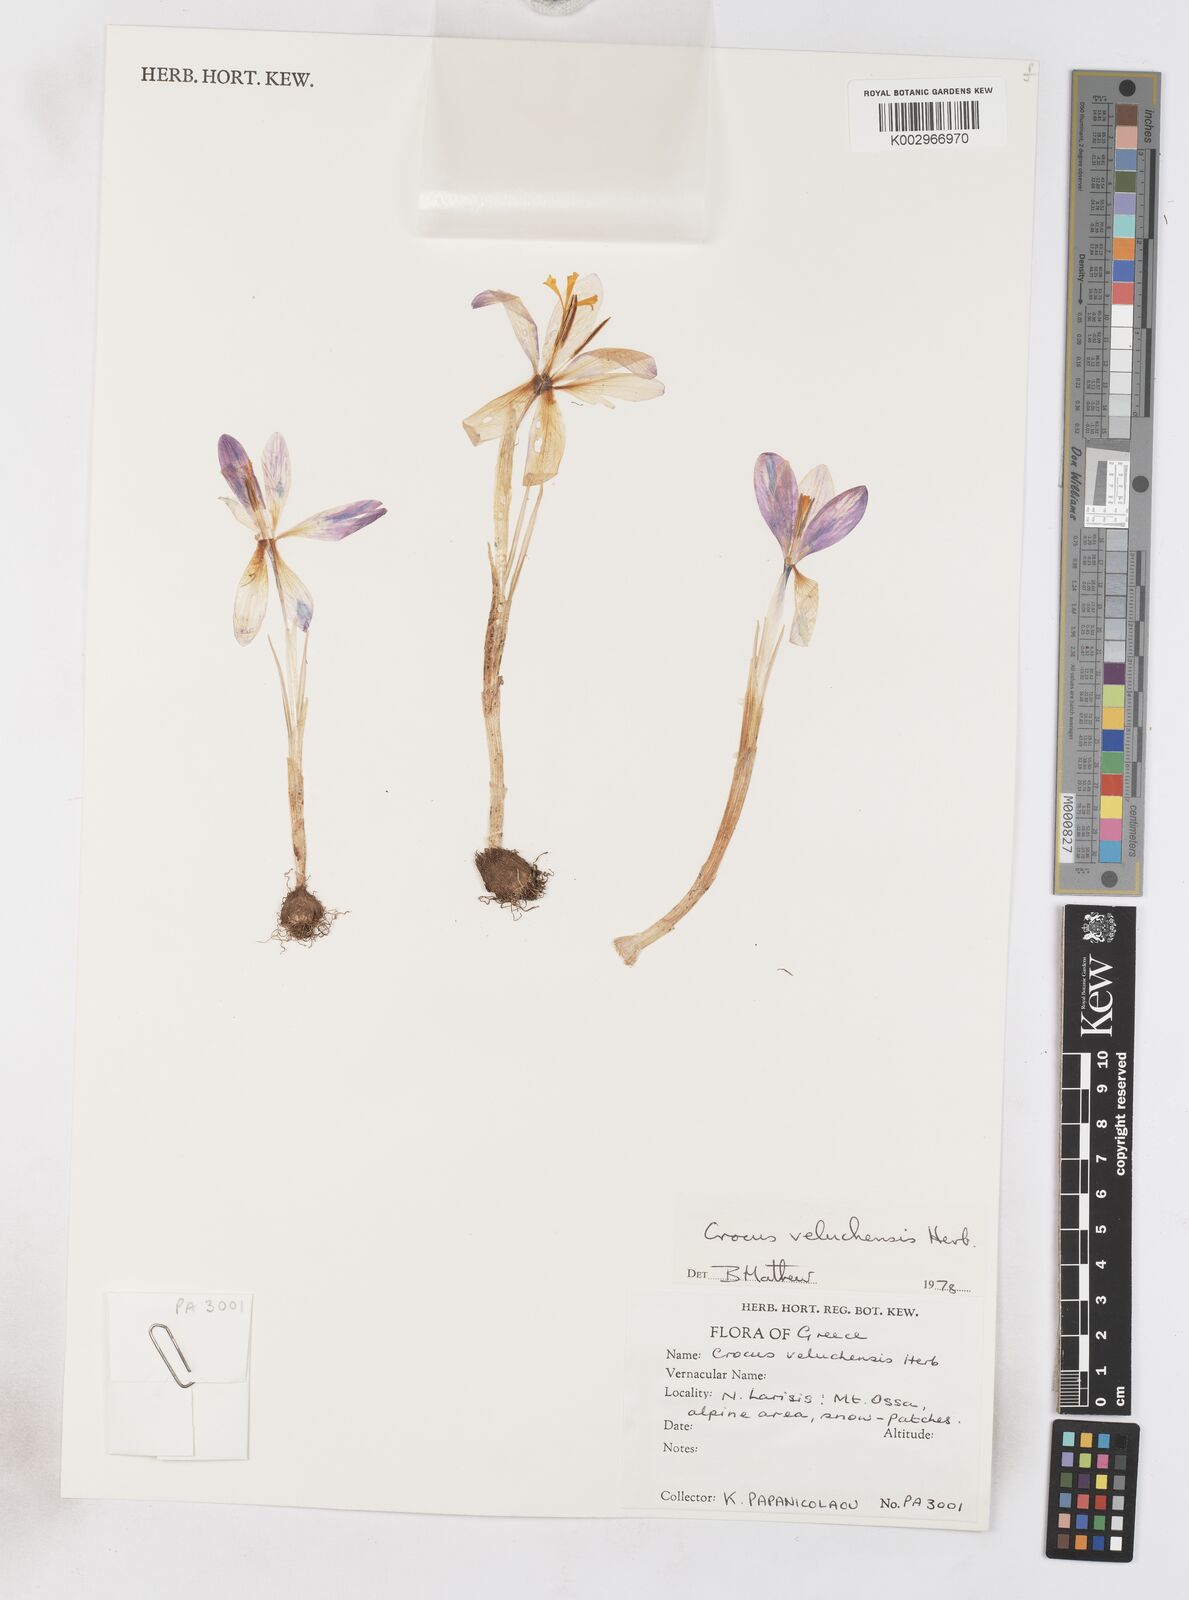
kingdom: Plantae
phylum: Tracheophyta
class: Liliopsida
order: Asparagales
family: Iridaceae
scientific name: Iridaceae
